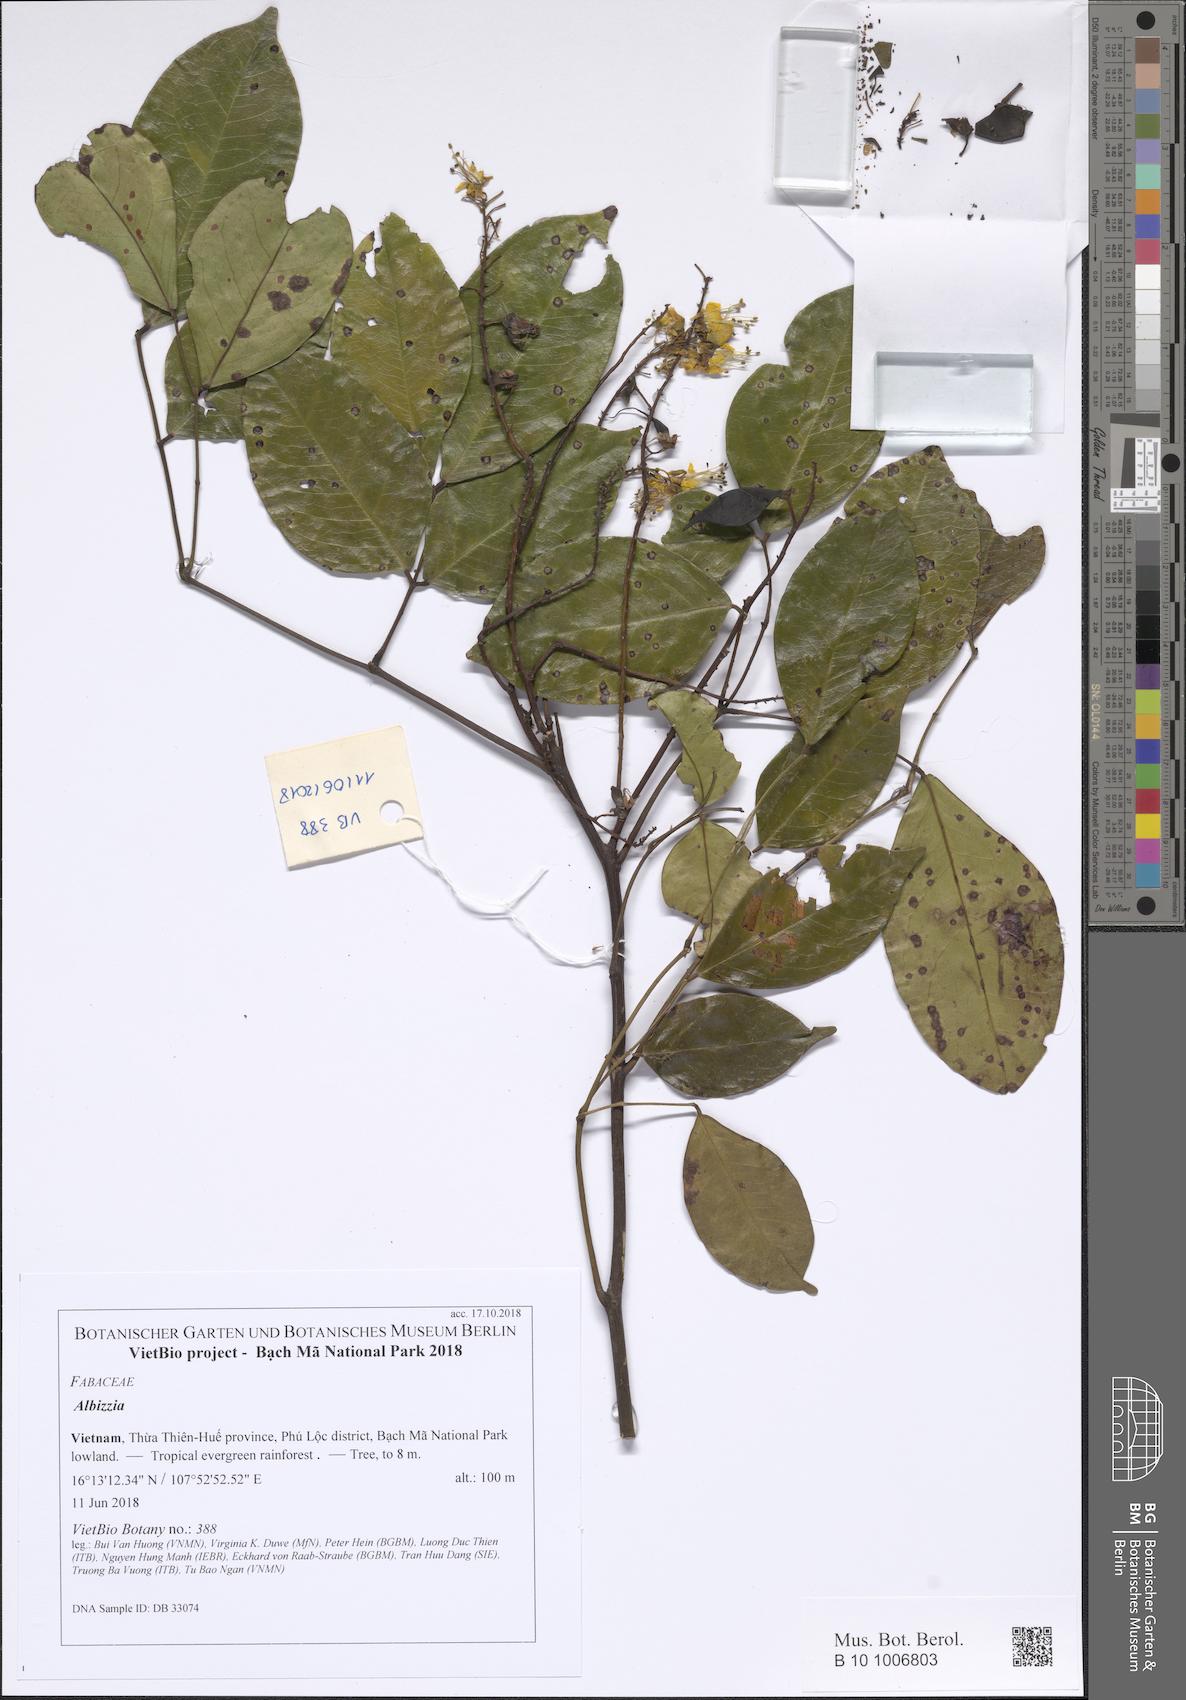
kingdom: Plantae
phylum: Tracheophyta
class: Magnoliopsida
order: Fabales
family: Fabaceae
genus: Albizzia
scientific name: Albizzia
